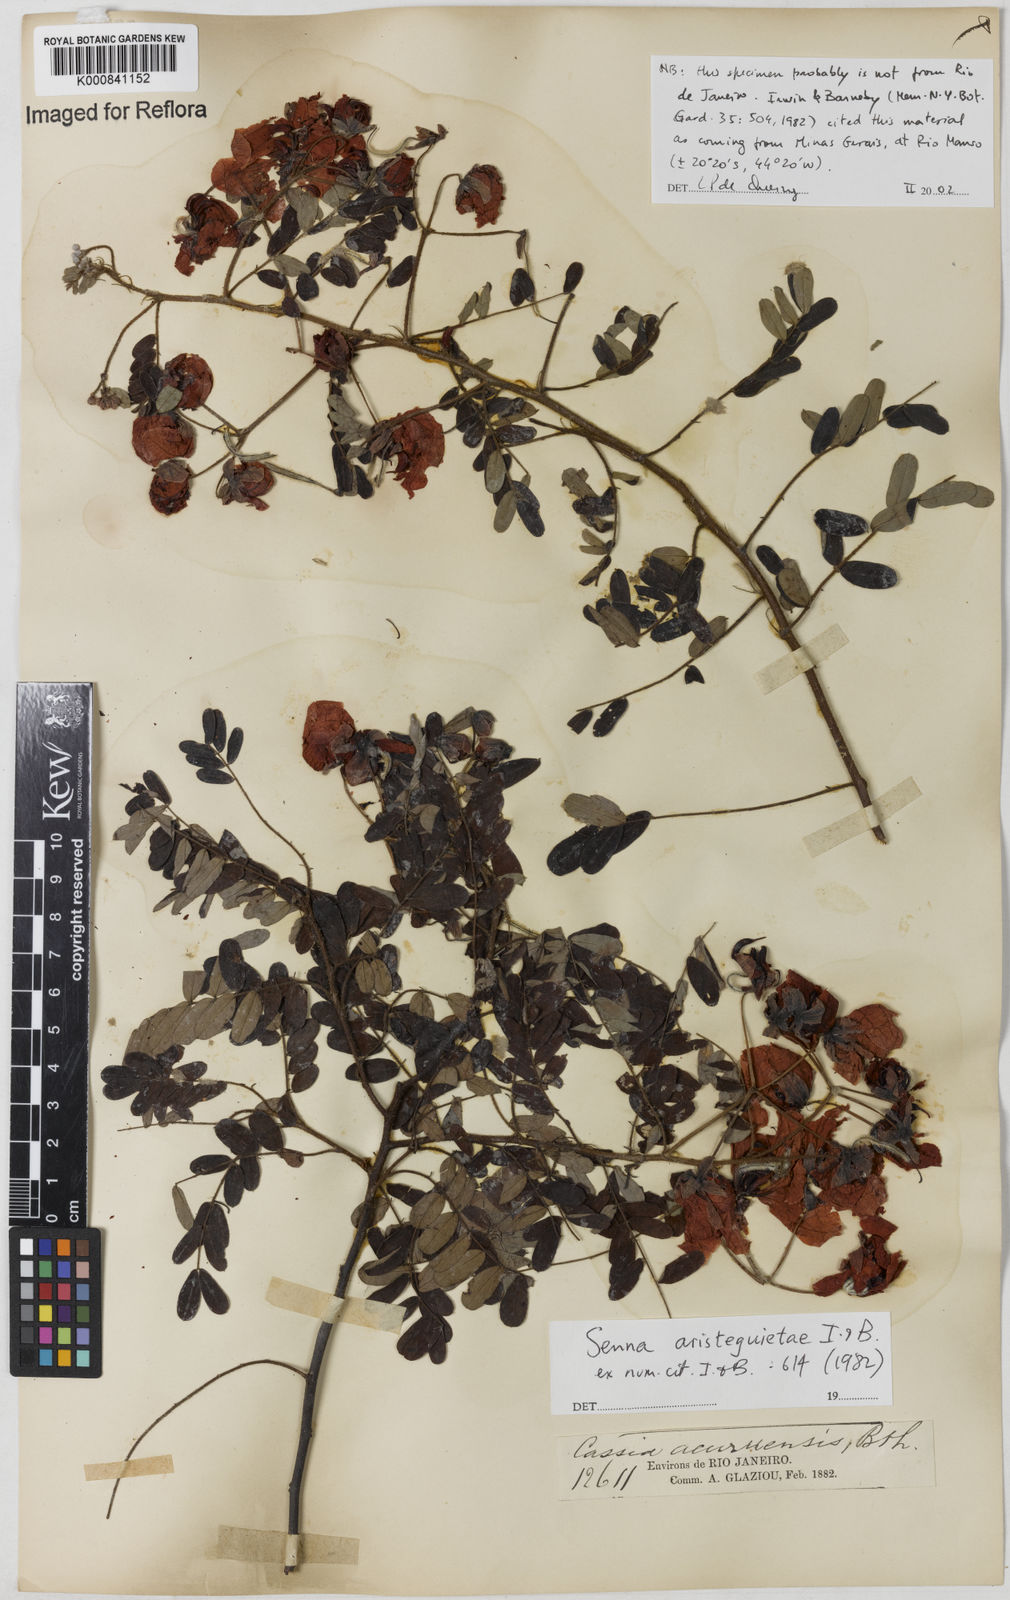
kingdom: Plantae
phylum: Tracheophyta
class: Magnoliopsida
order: Fabales
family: Fabaceae
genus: Senna
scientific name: Senna aristeguietae
